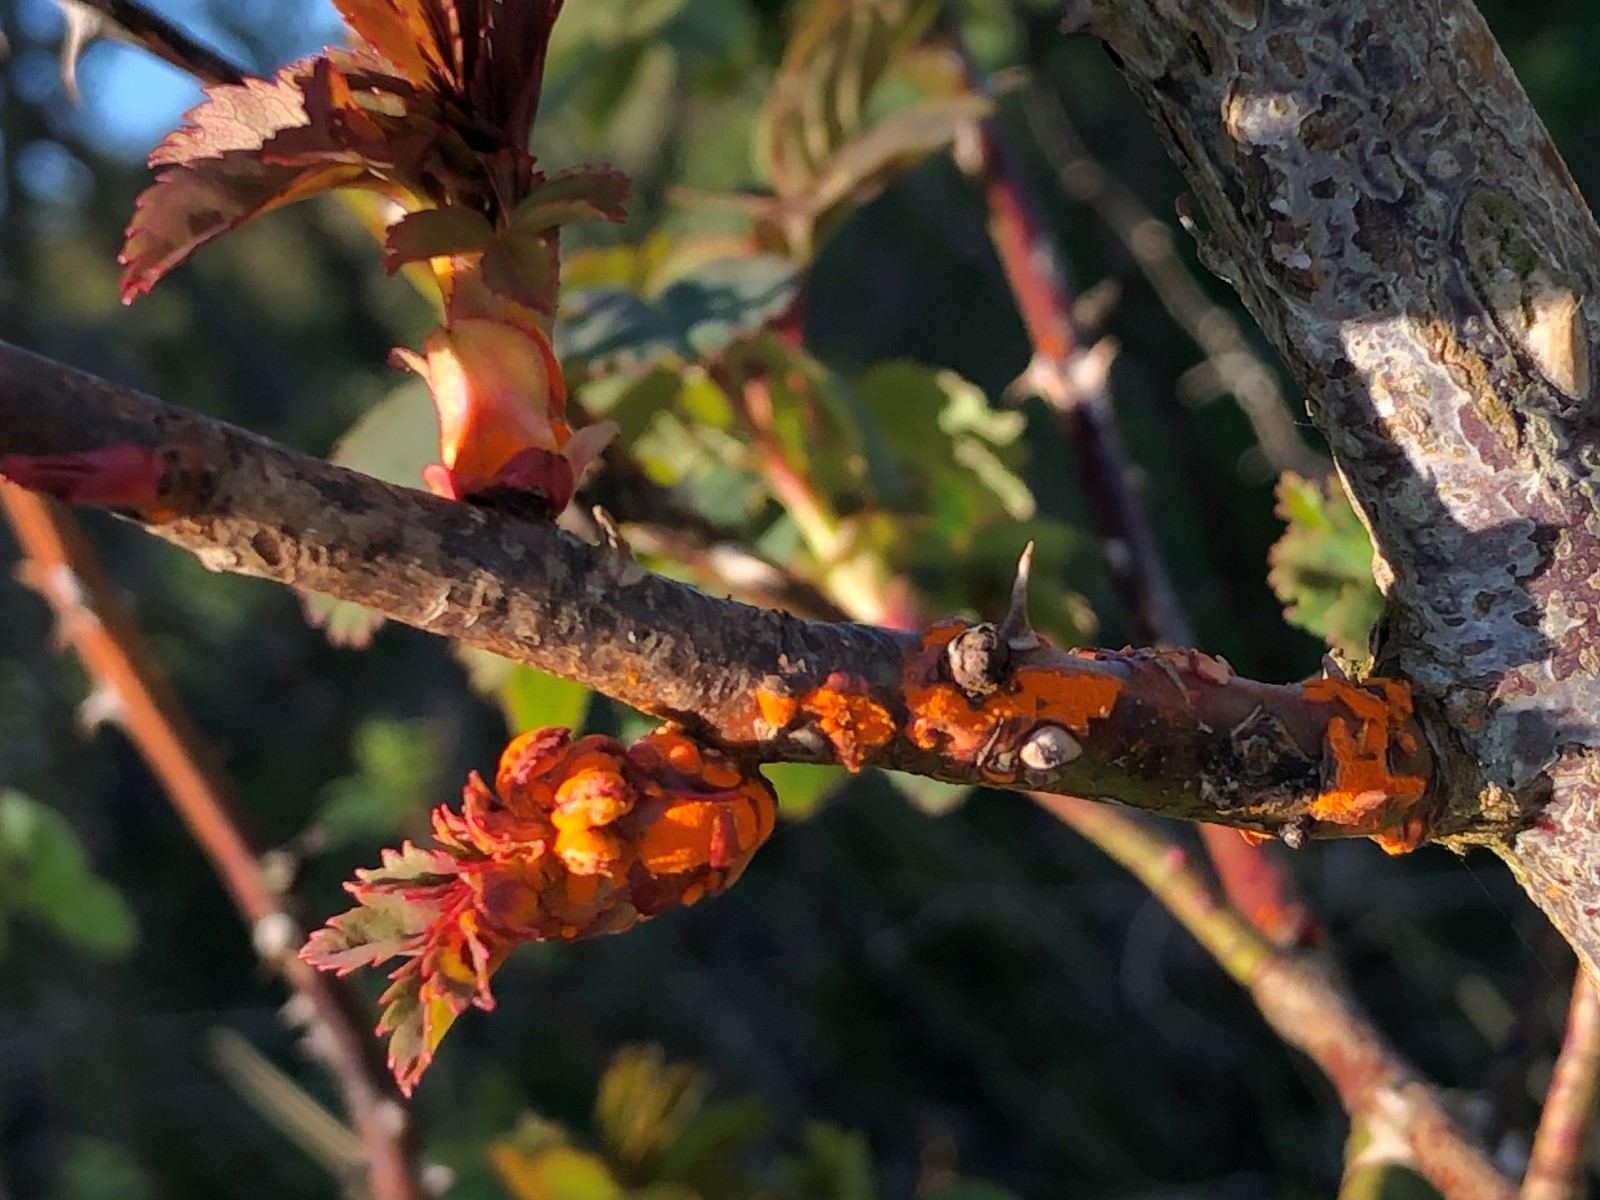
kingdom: Fungi
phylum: Basidiomycota
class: Pucciniomycetes
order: Pucciniales
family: Phragmidiaceae
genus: Phragmidium
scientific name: Phragmidium
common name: flercellerust
